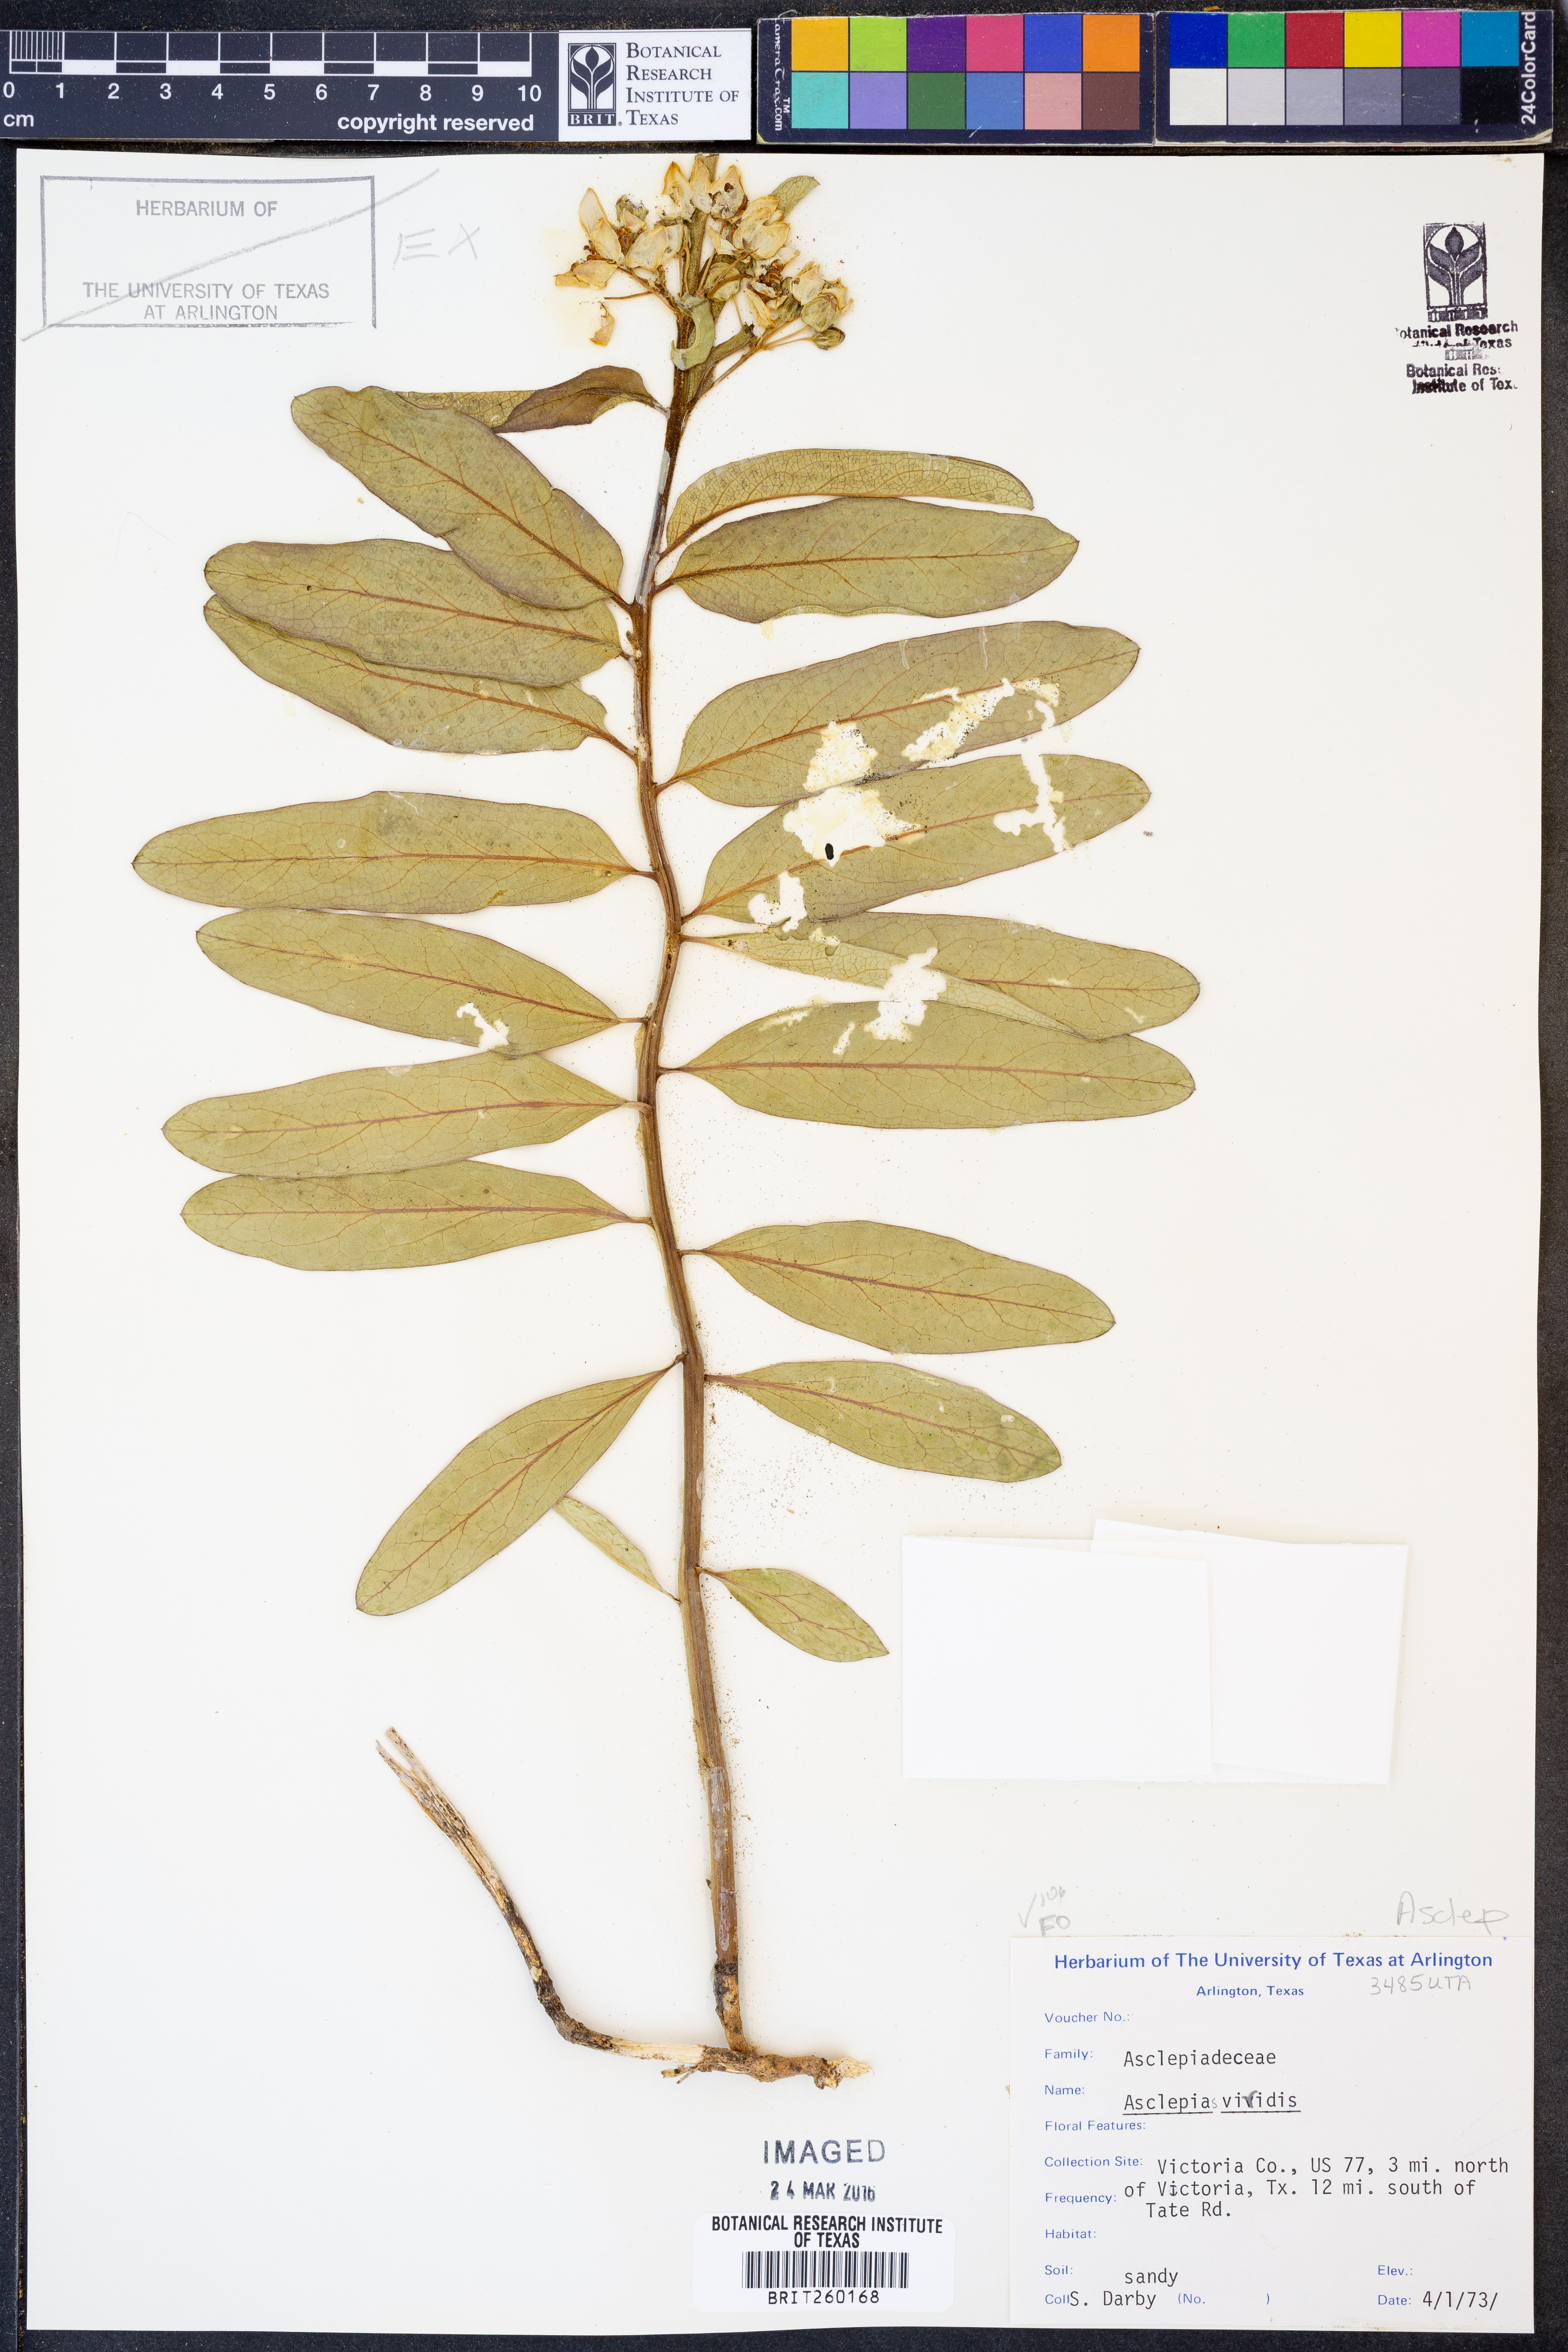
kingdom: Plantae
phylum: Tracheophyta
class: Magnoliopsida
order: Gentianales
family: Apocynaceae
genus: Asclepias
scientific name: Asclepias viridis
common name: Antelope-horns
